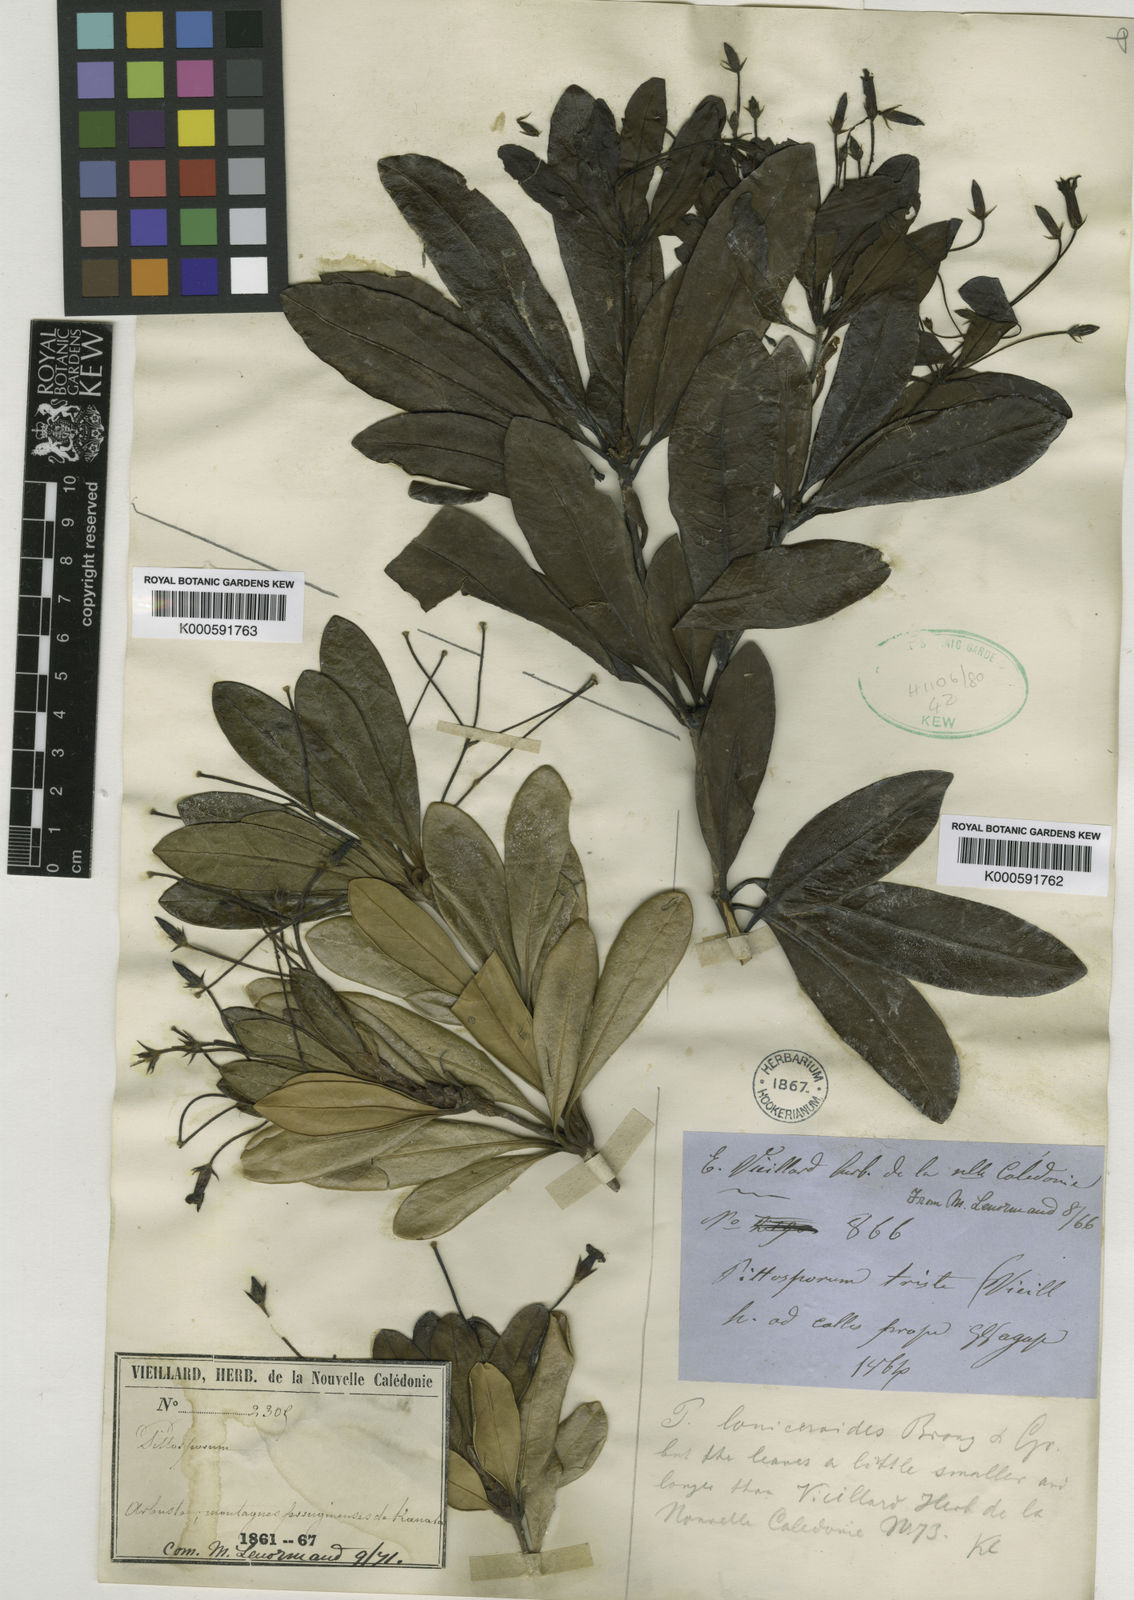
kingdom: Plantae
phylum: Tracheophyta
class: Magnoliopsida
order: Apiales
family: Pittosporaceae
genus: Pittosporum
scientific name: Pittosporum
